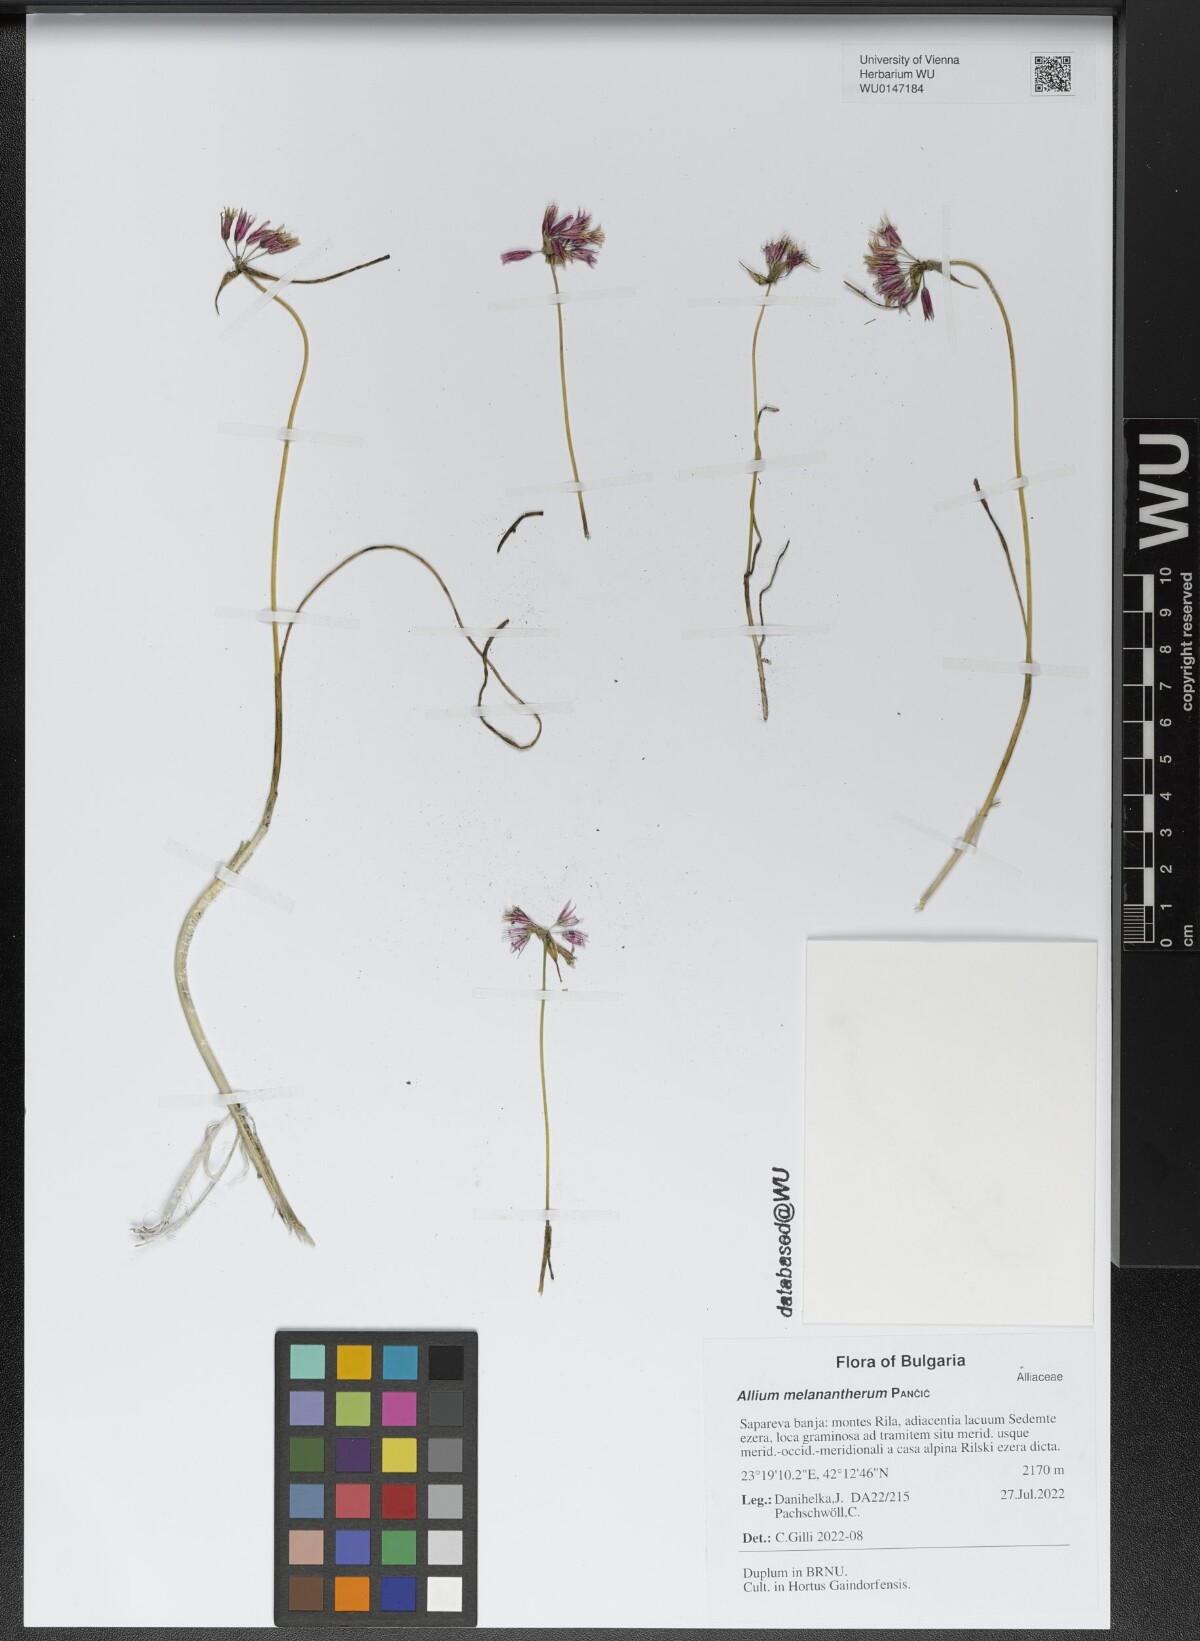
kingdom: Plantae
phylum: Tracheophyta
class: Liliopsida
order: Asparagales
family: Amaryllidaceae
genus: Allium
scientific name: Allium melanantherum
